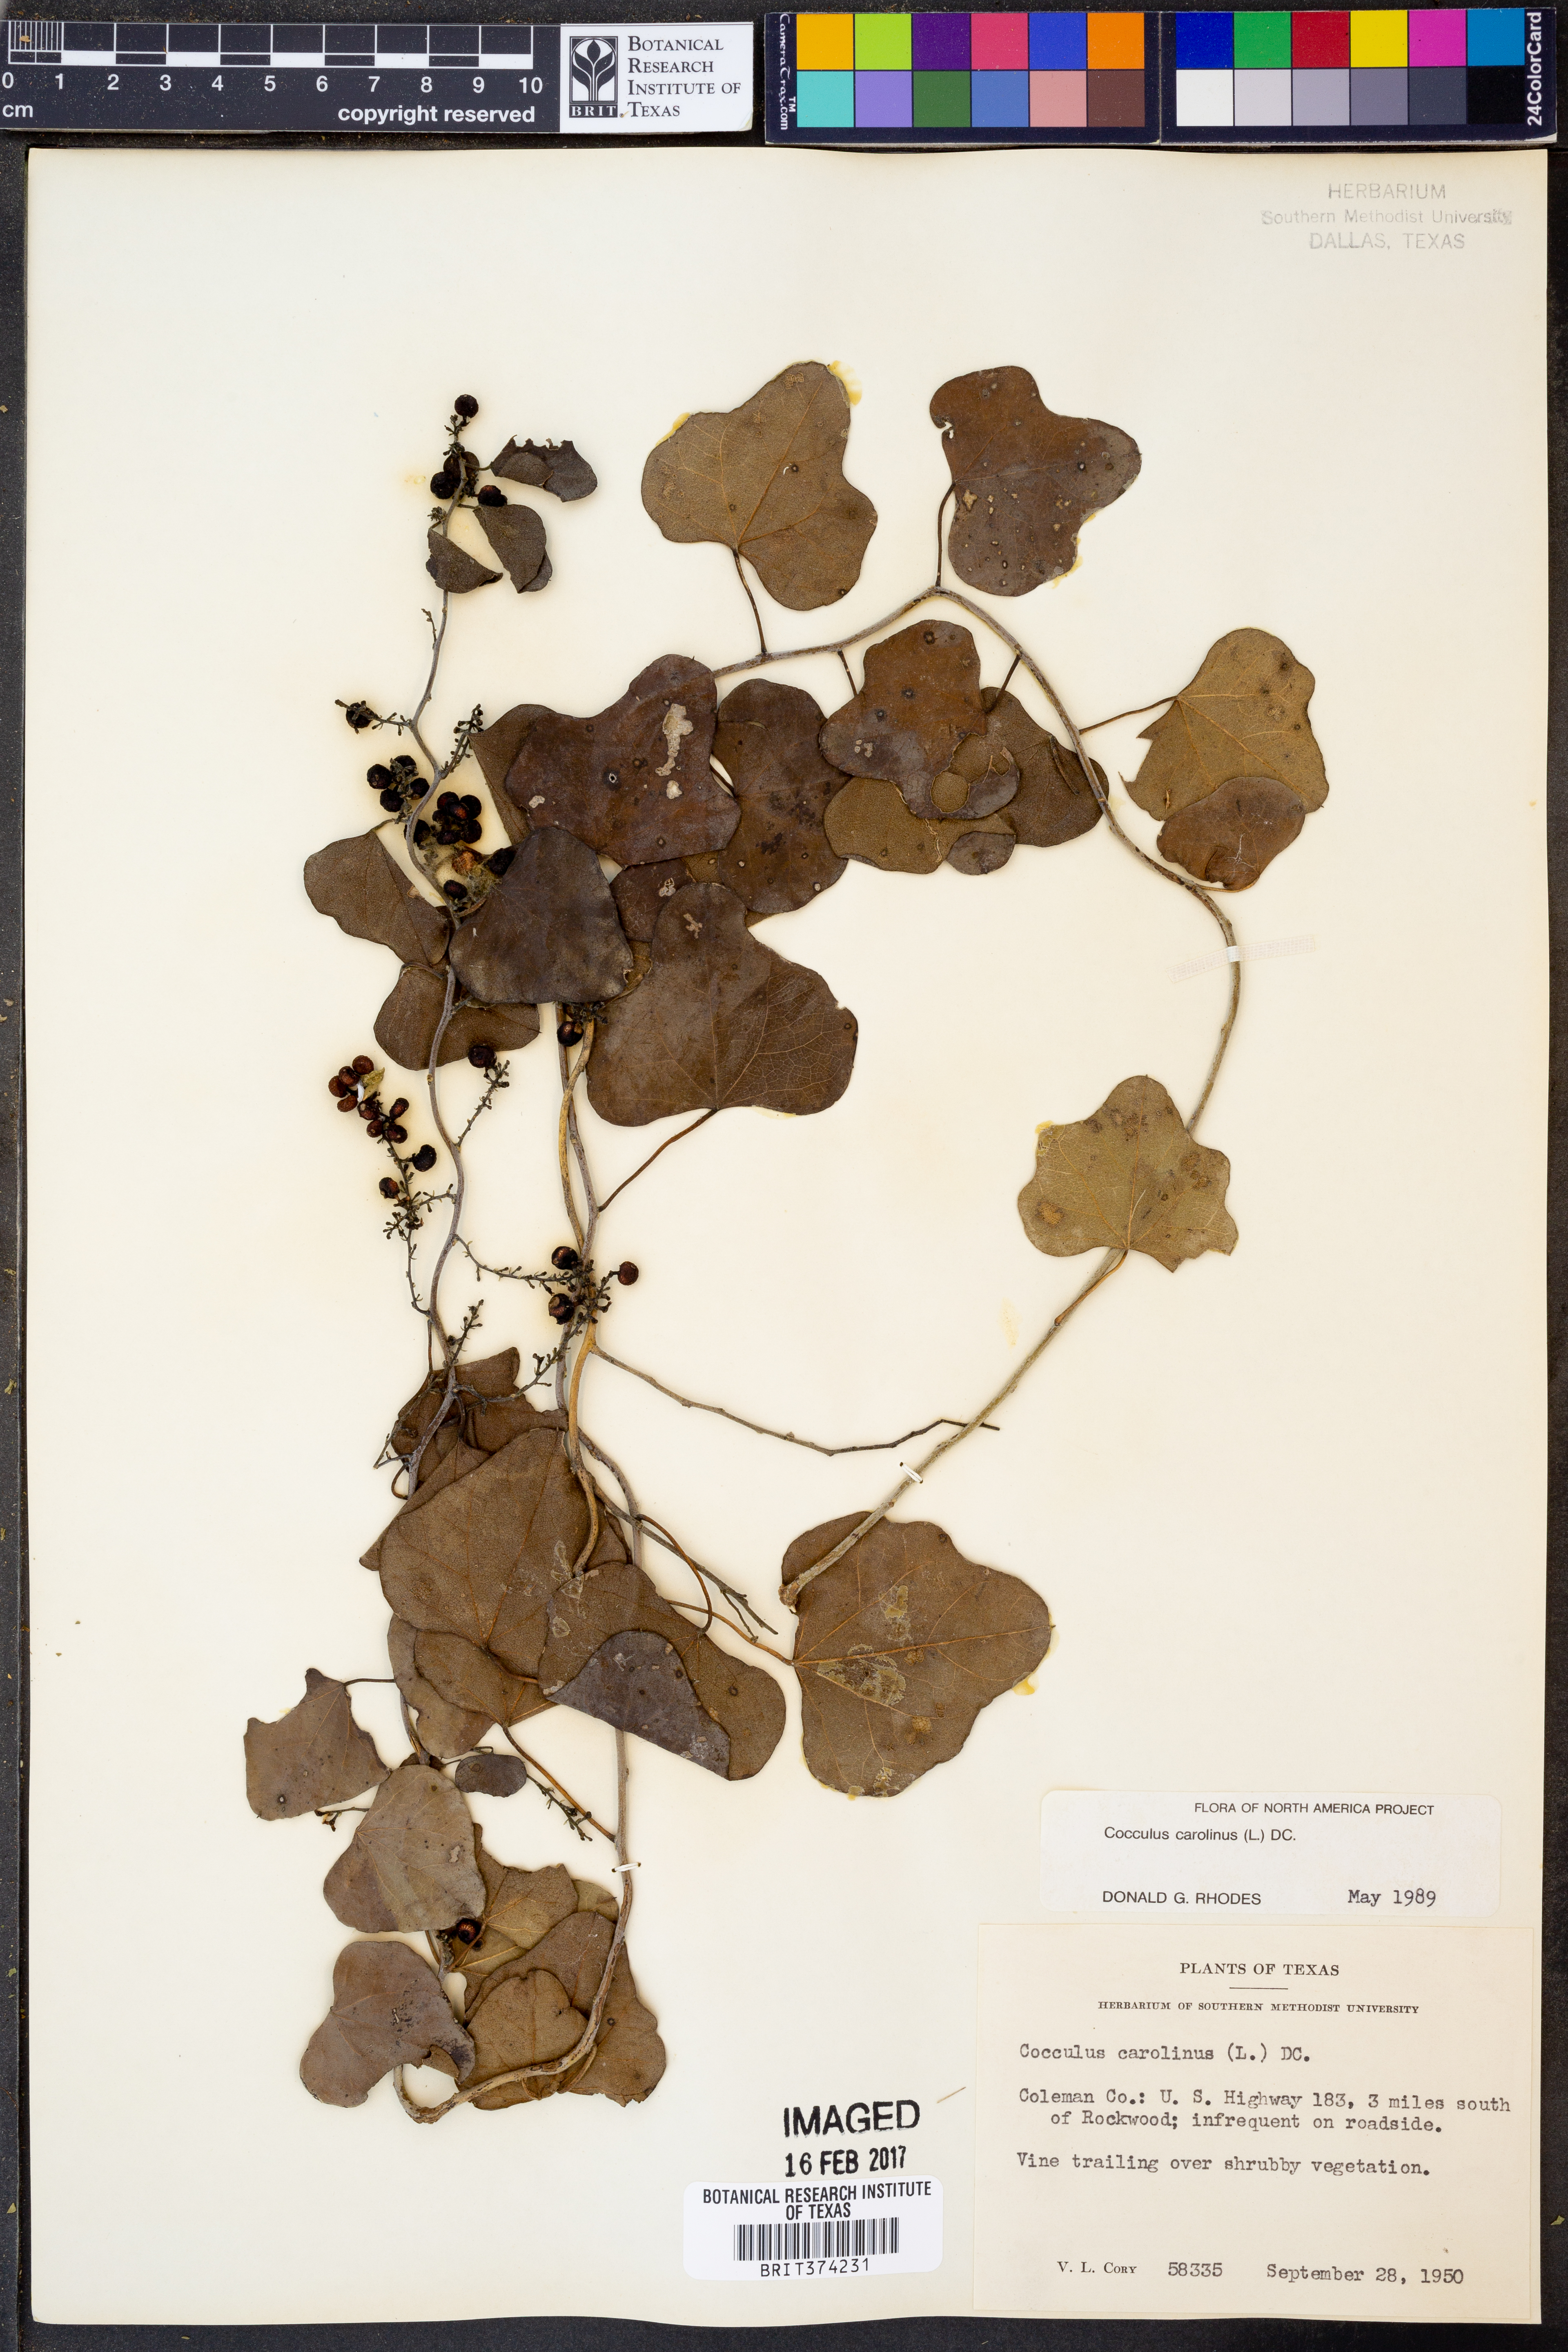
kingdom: Plantae
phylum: Tracheophyta
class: Magnoliopsida
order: Ranunculales
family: Menispermaceae
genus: Cocculus
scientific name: Cocculus carolinus
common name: Carolina moonseed
